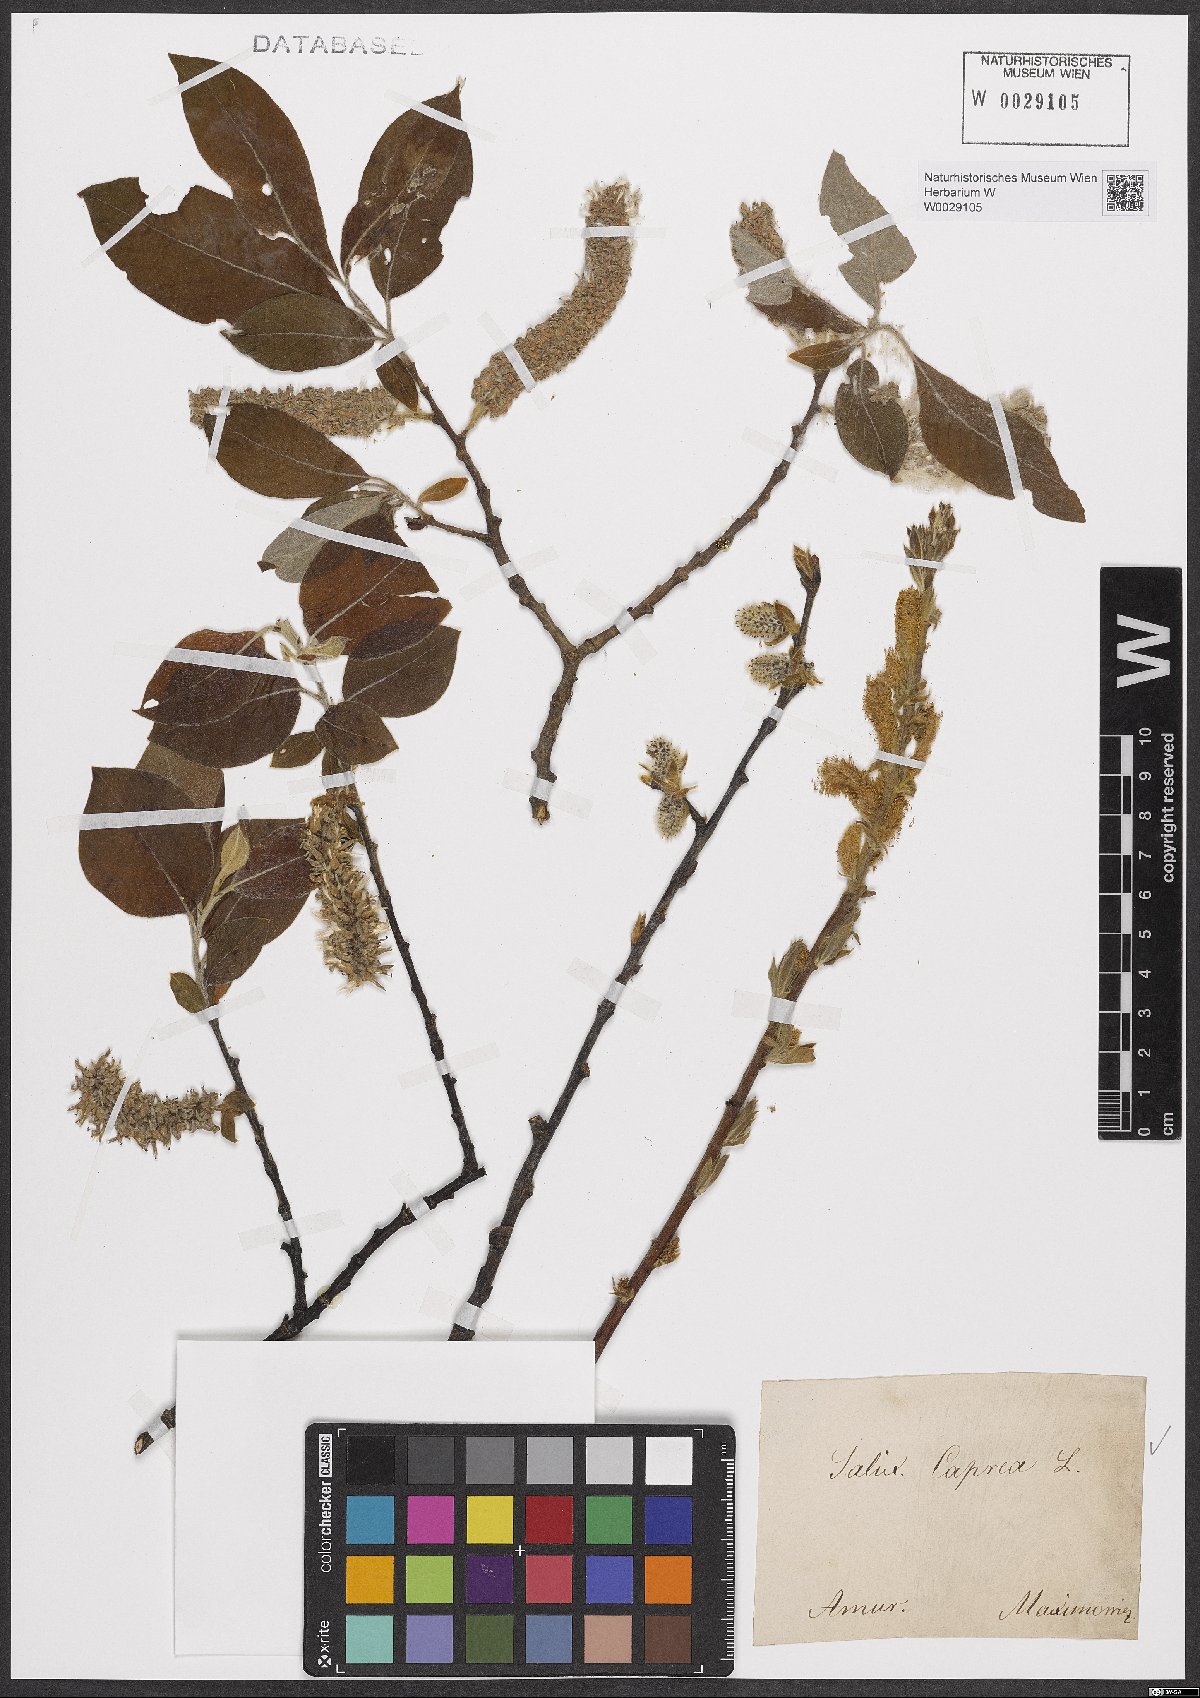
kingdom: Plantae
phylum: Tracheophyta
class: Magnoliopsida
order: Malpighiales
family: Salicaceae
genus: Salix
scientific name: Salix caprea
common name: Goat willow
